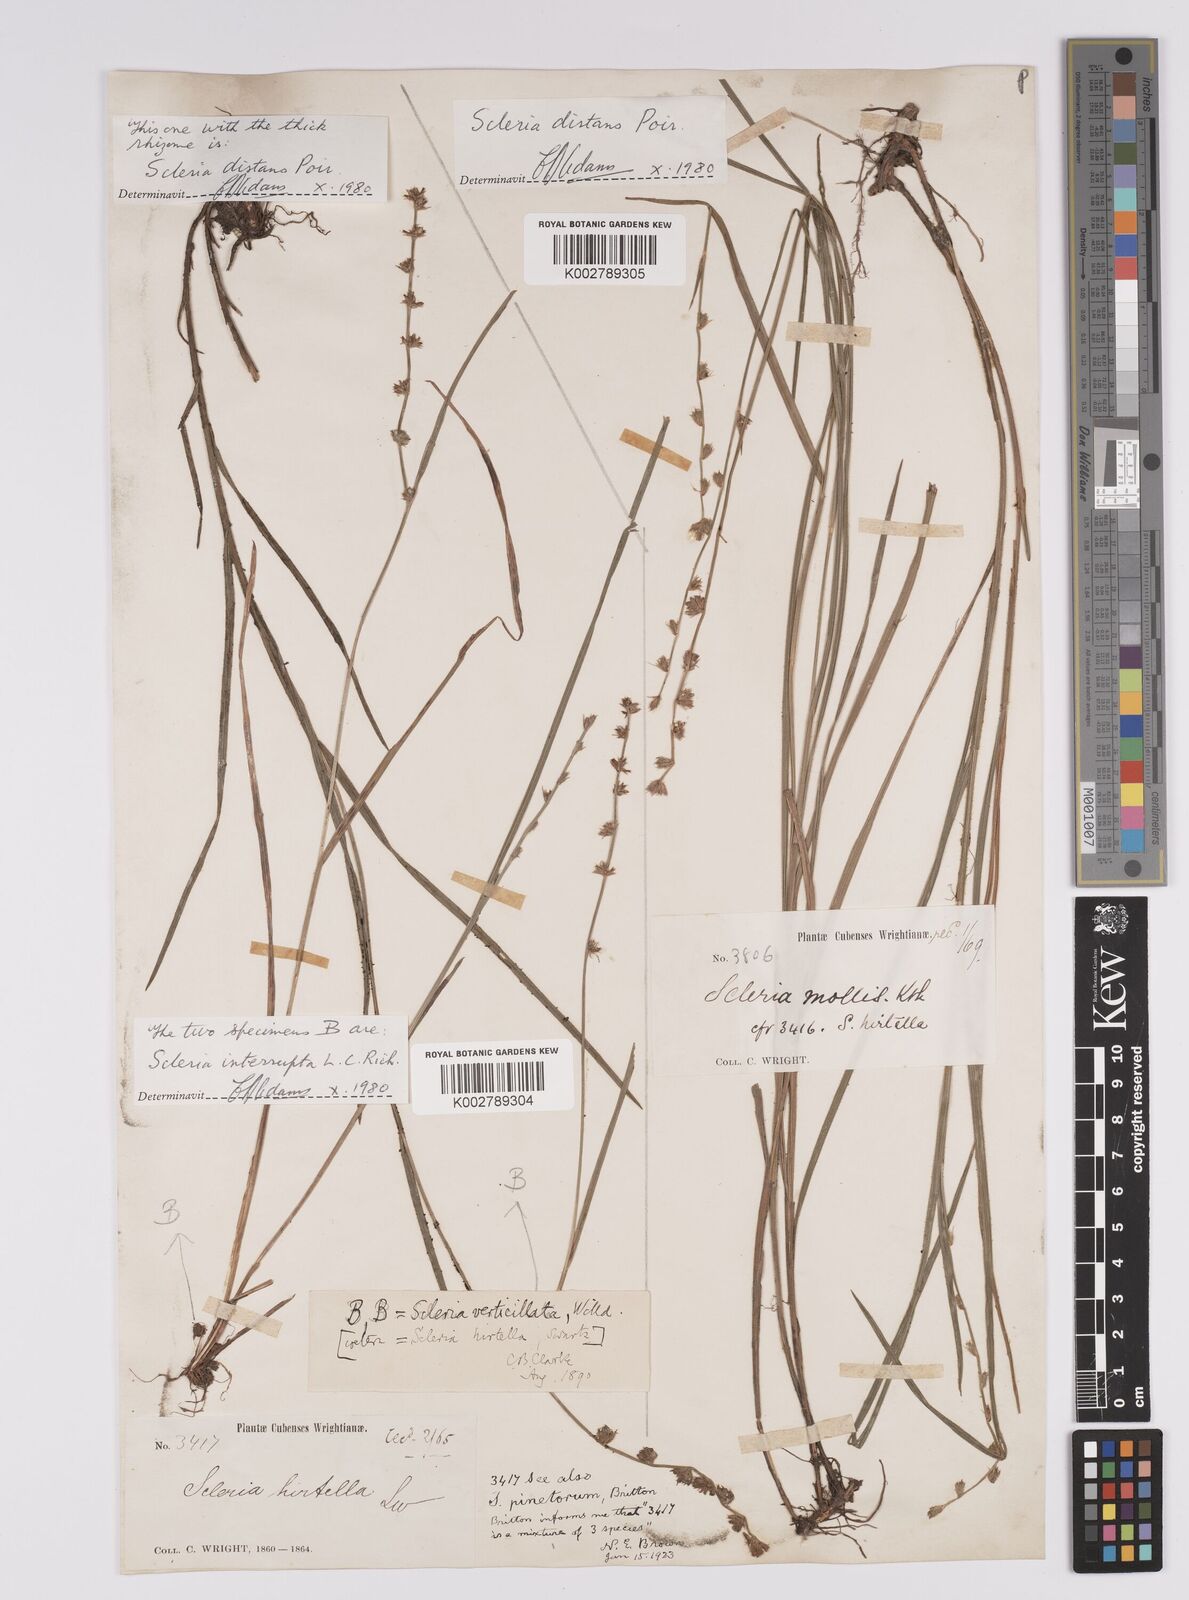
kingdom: Plantae
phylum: Tracheophyta
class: Liliopsida
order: Poales
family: Cyperaceae
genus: Scleria
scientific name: Scleria hirtella
